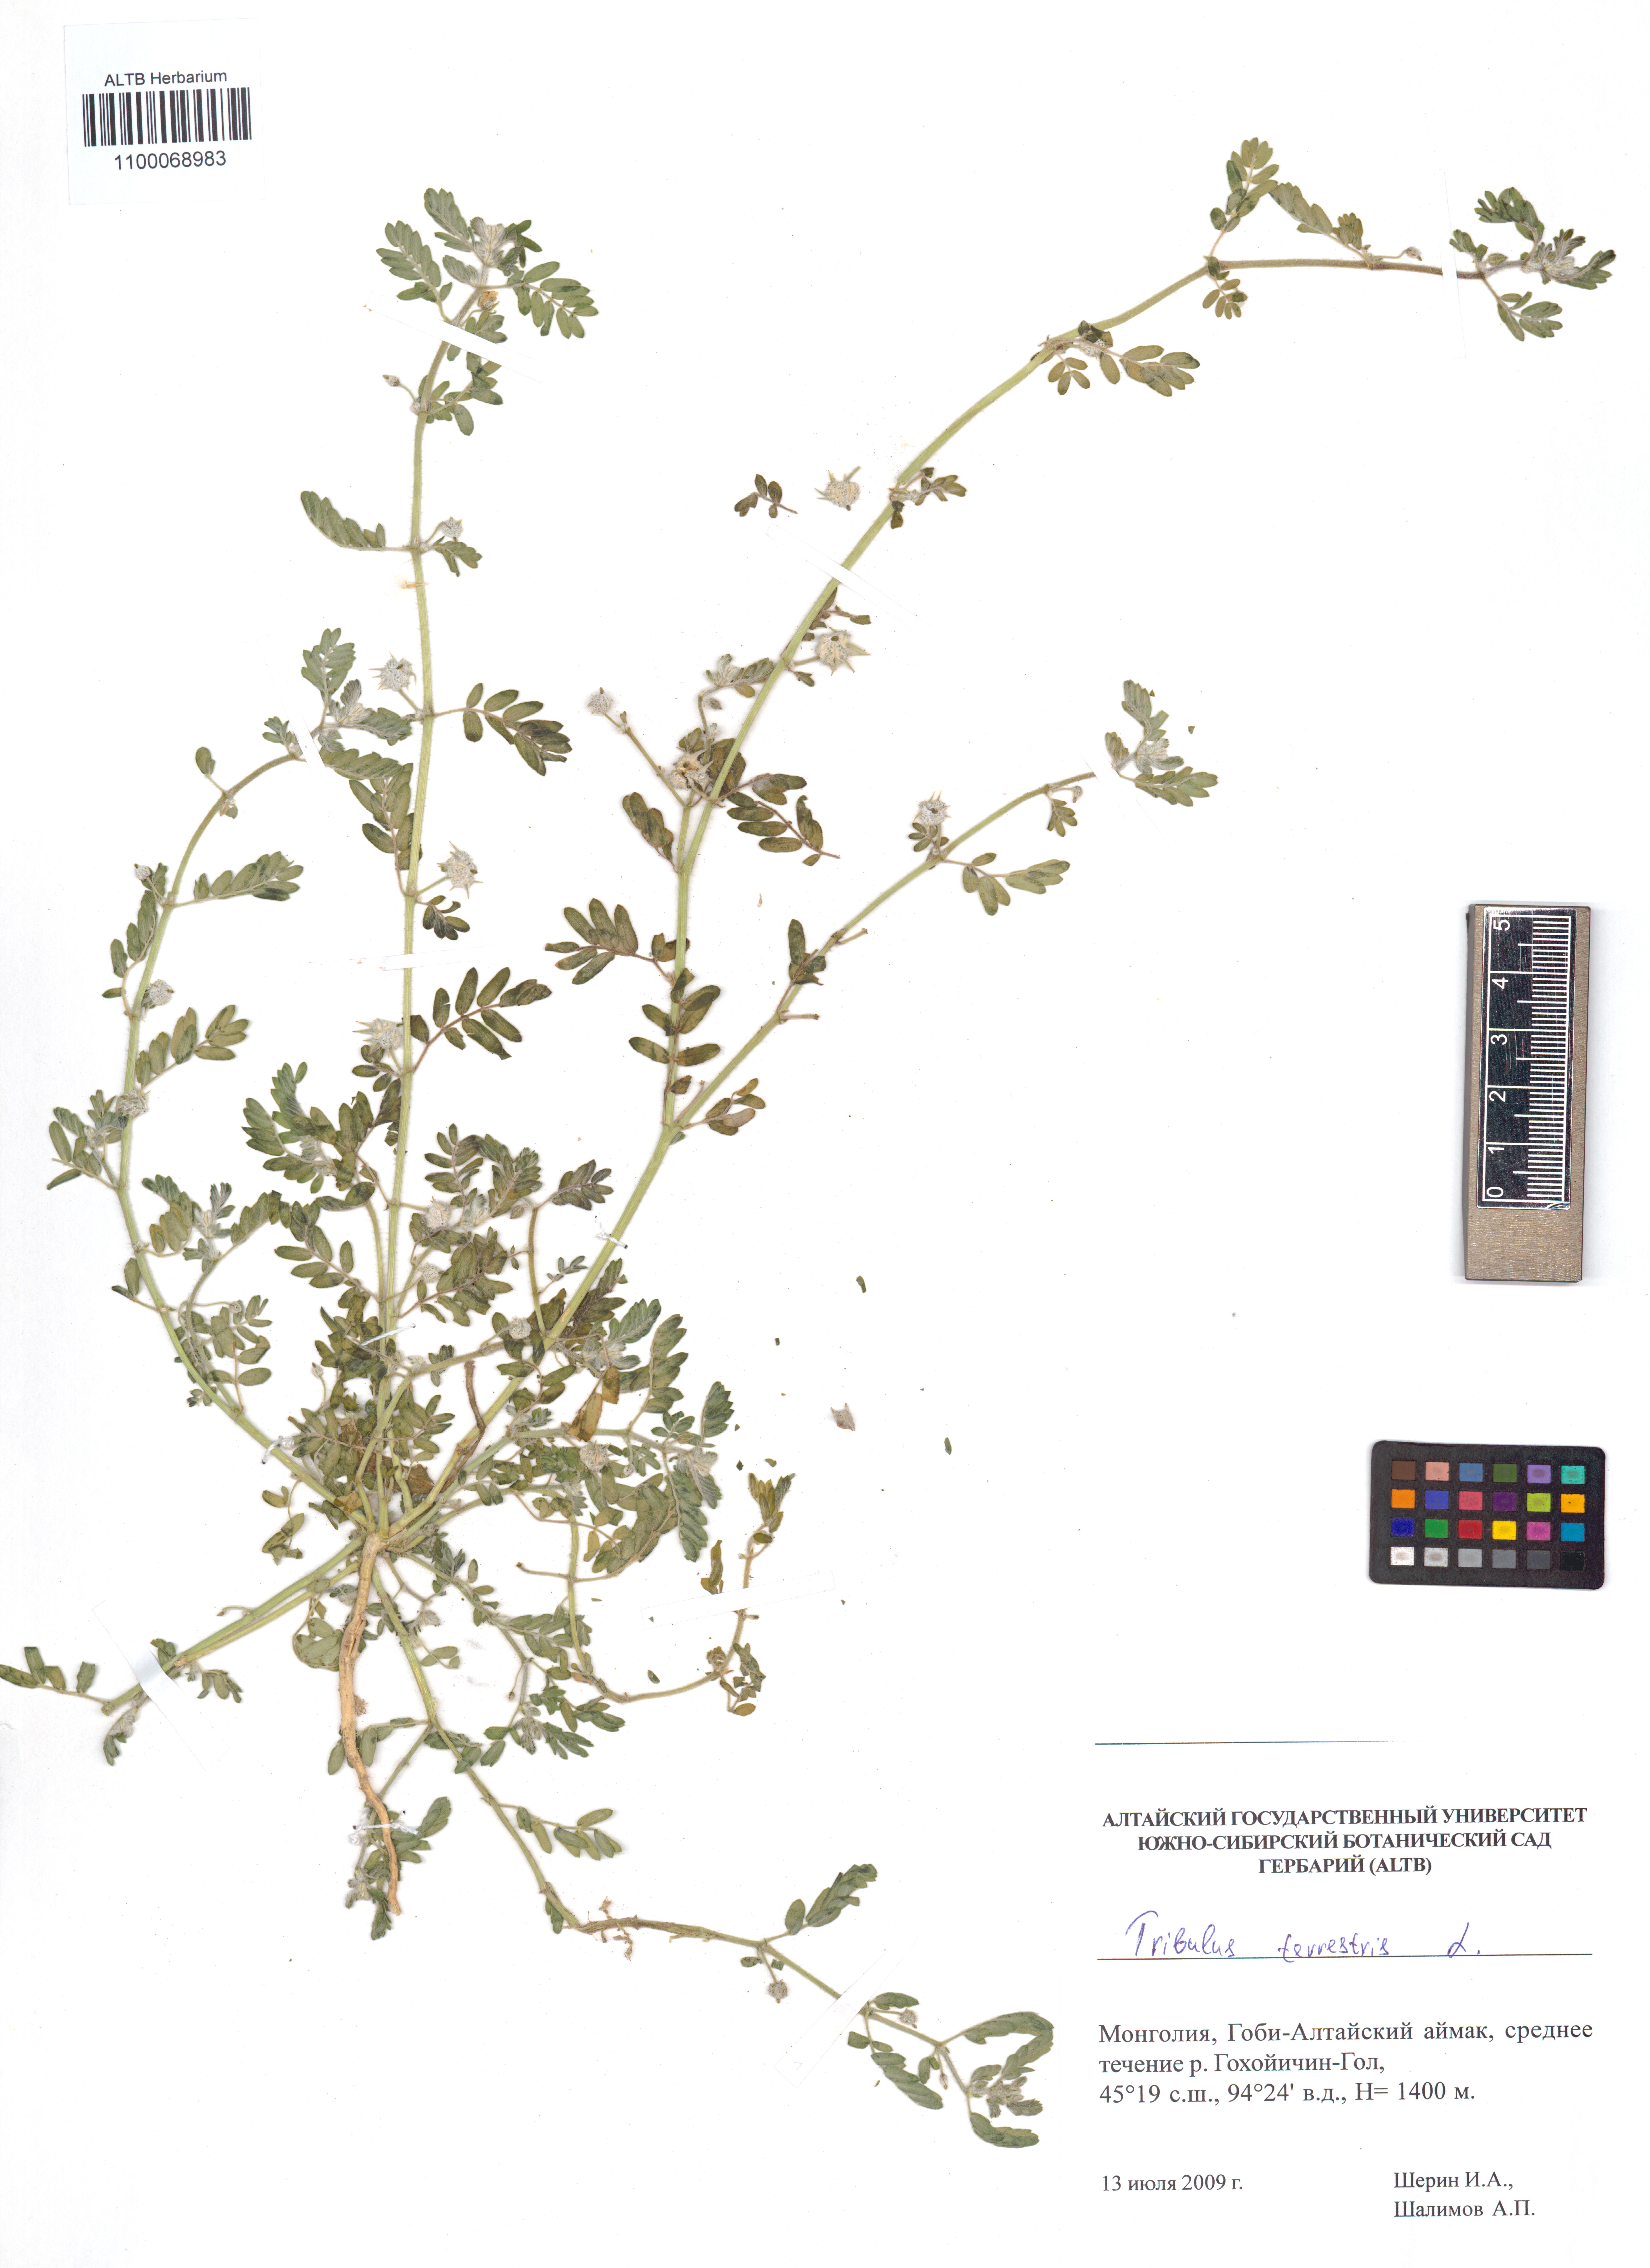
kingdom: Plantae
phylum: Tracheophyta
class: Magnoliopsida
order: Zygophyllales
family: Zygophyllaceae
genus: Tribulus
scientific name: Tribulus terrestris
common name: Puncturevine
